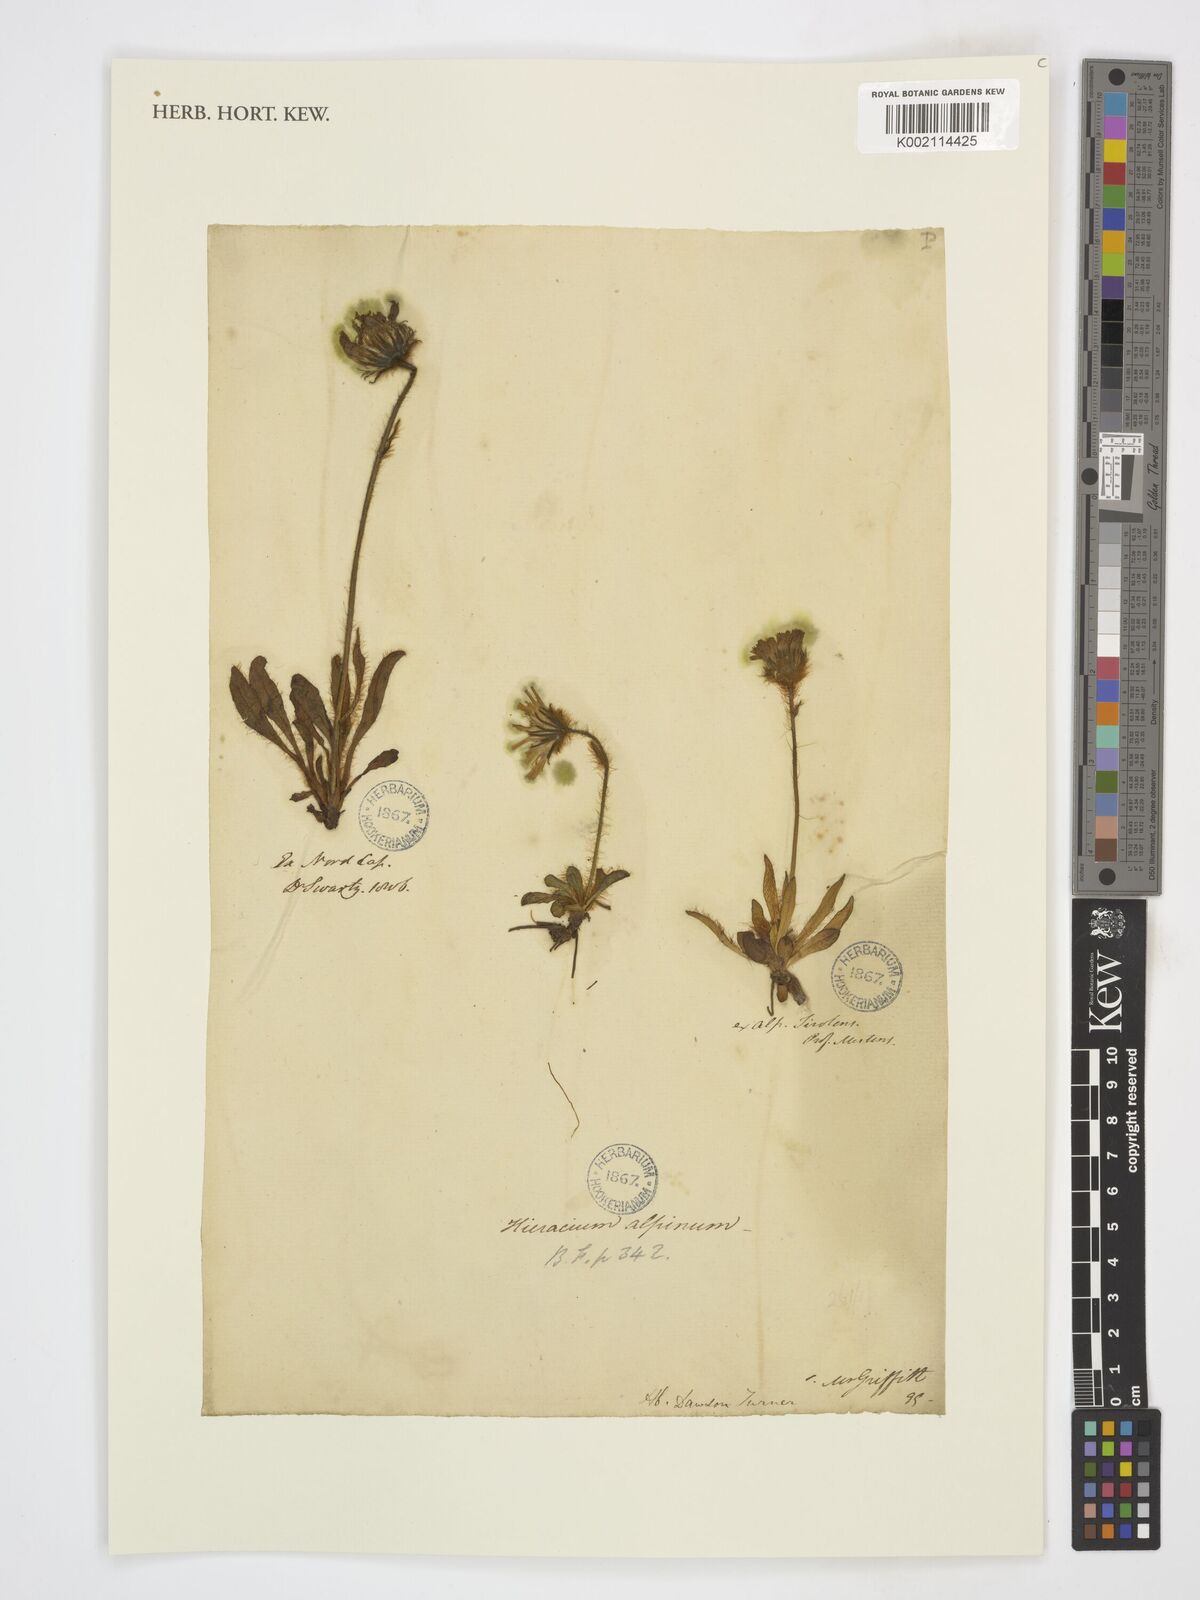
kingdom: Plantae
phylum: Tracheophyta
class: Magnoliopsida
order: Asterales
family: Asteraceae
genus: Hieracium
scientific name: Hieracium
